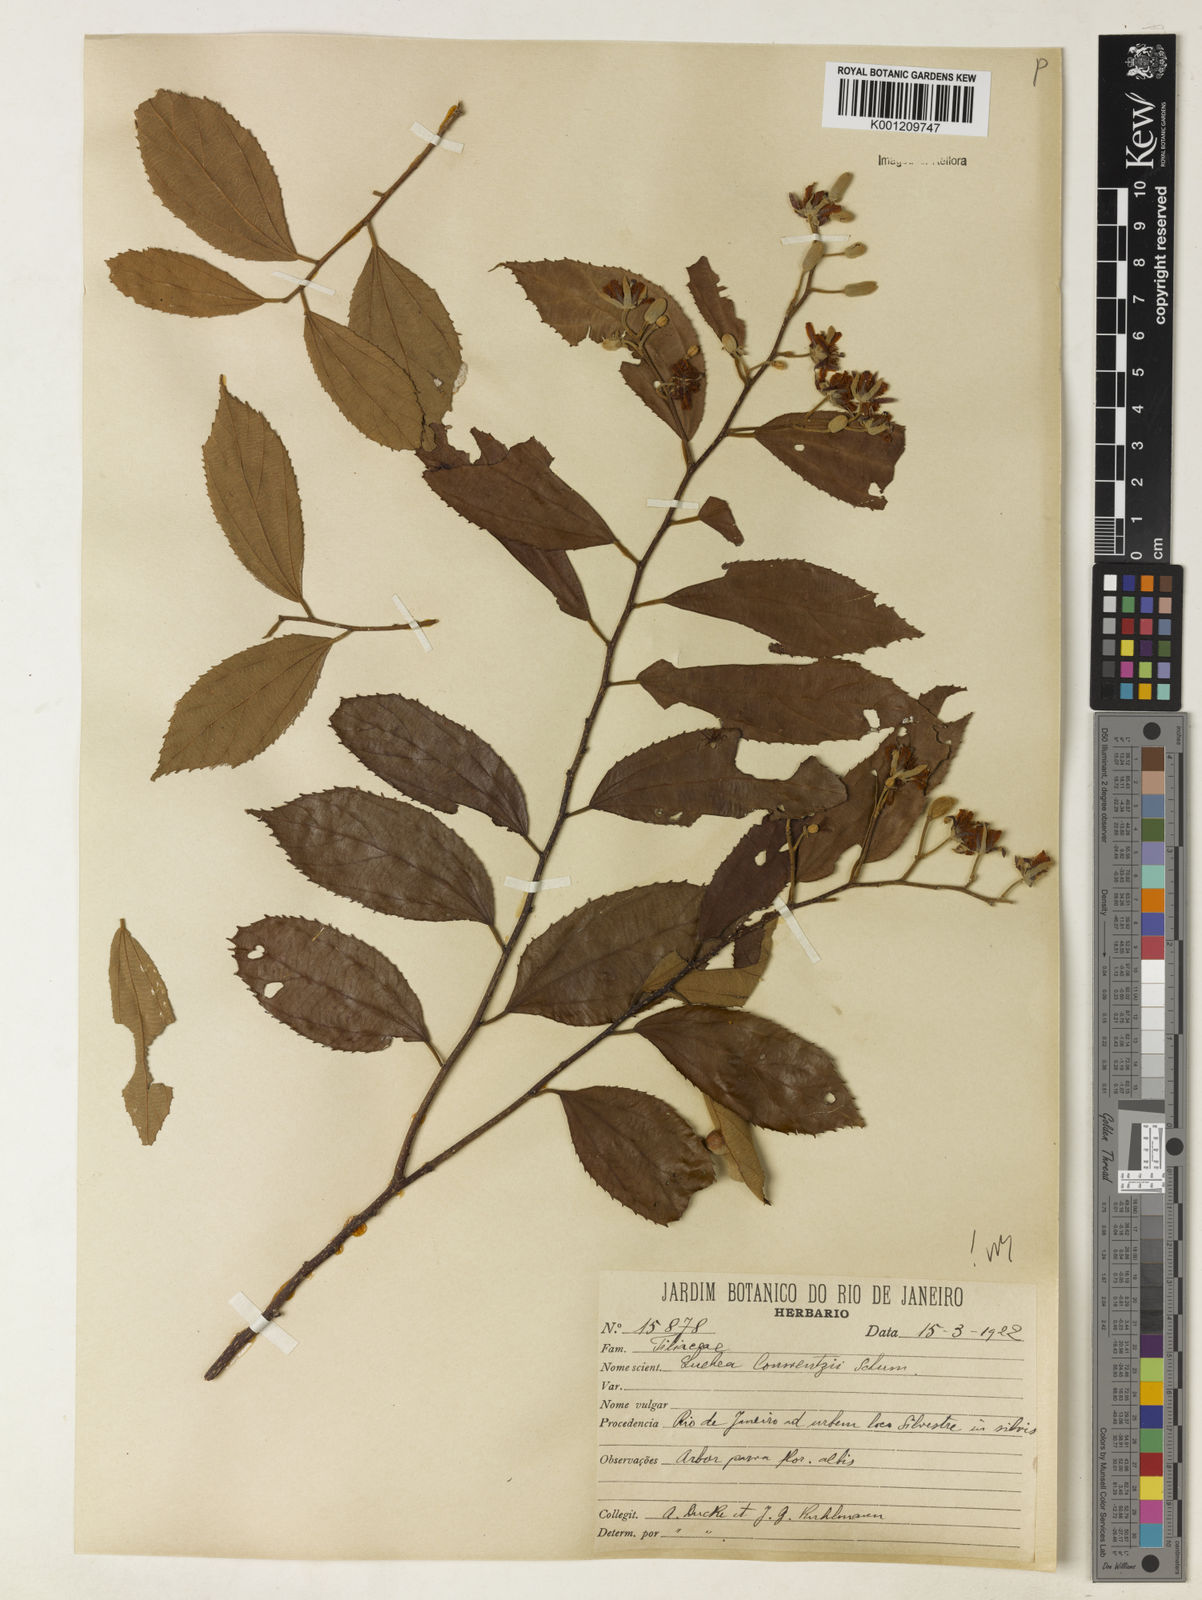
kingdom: Plantae
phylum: Tracheophyta
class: Magnoliopsida
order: Malvales
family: Malvaceae
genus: Luehea
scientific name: Luehea
